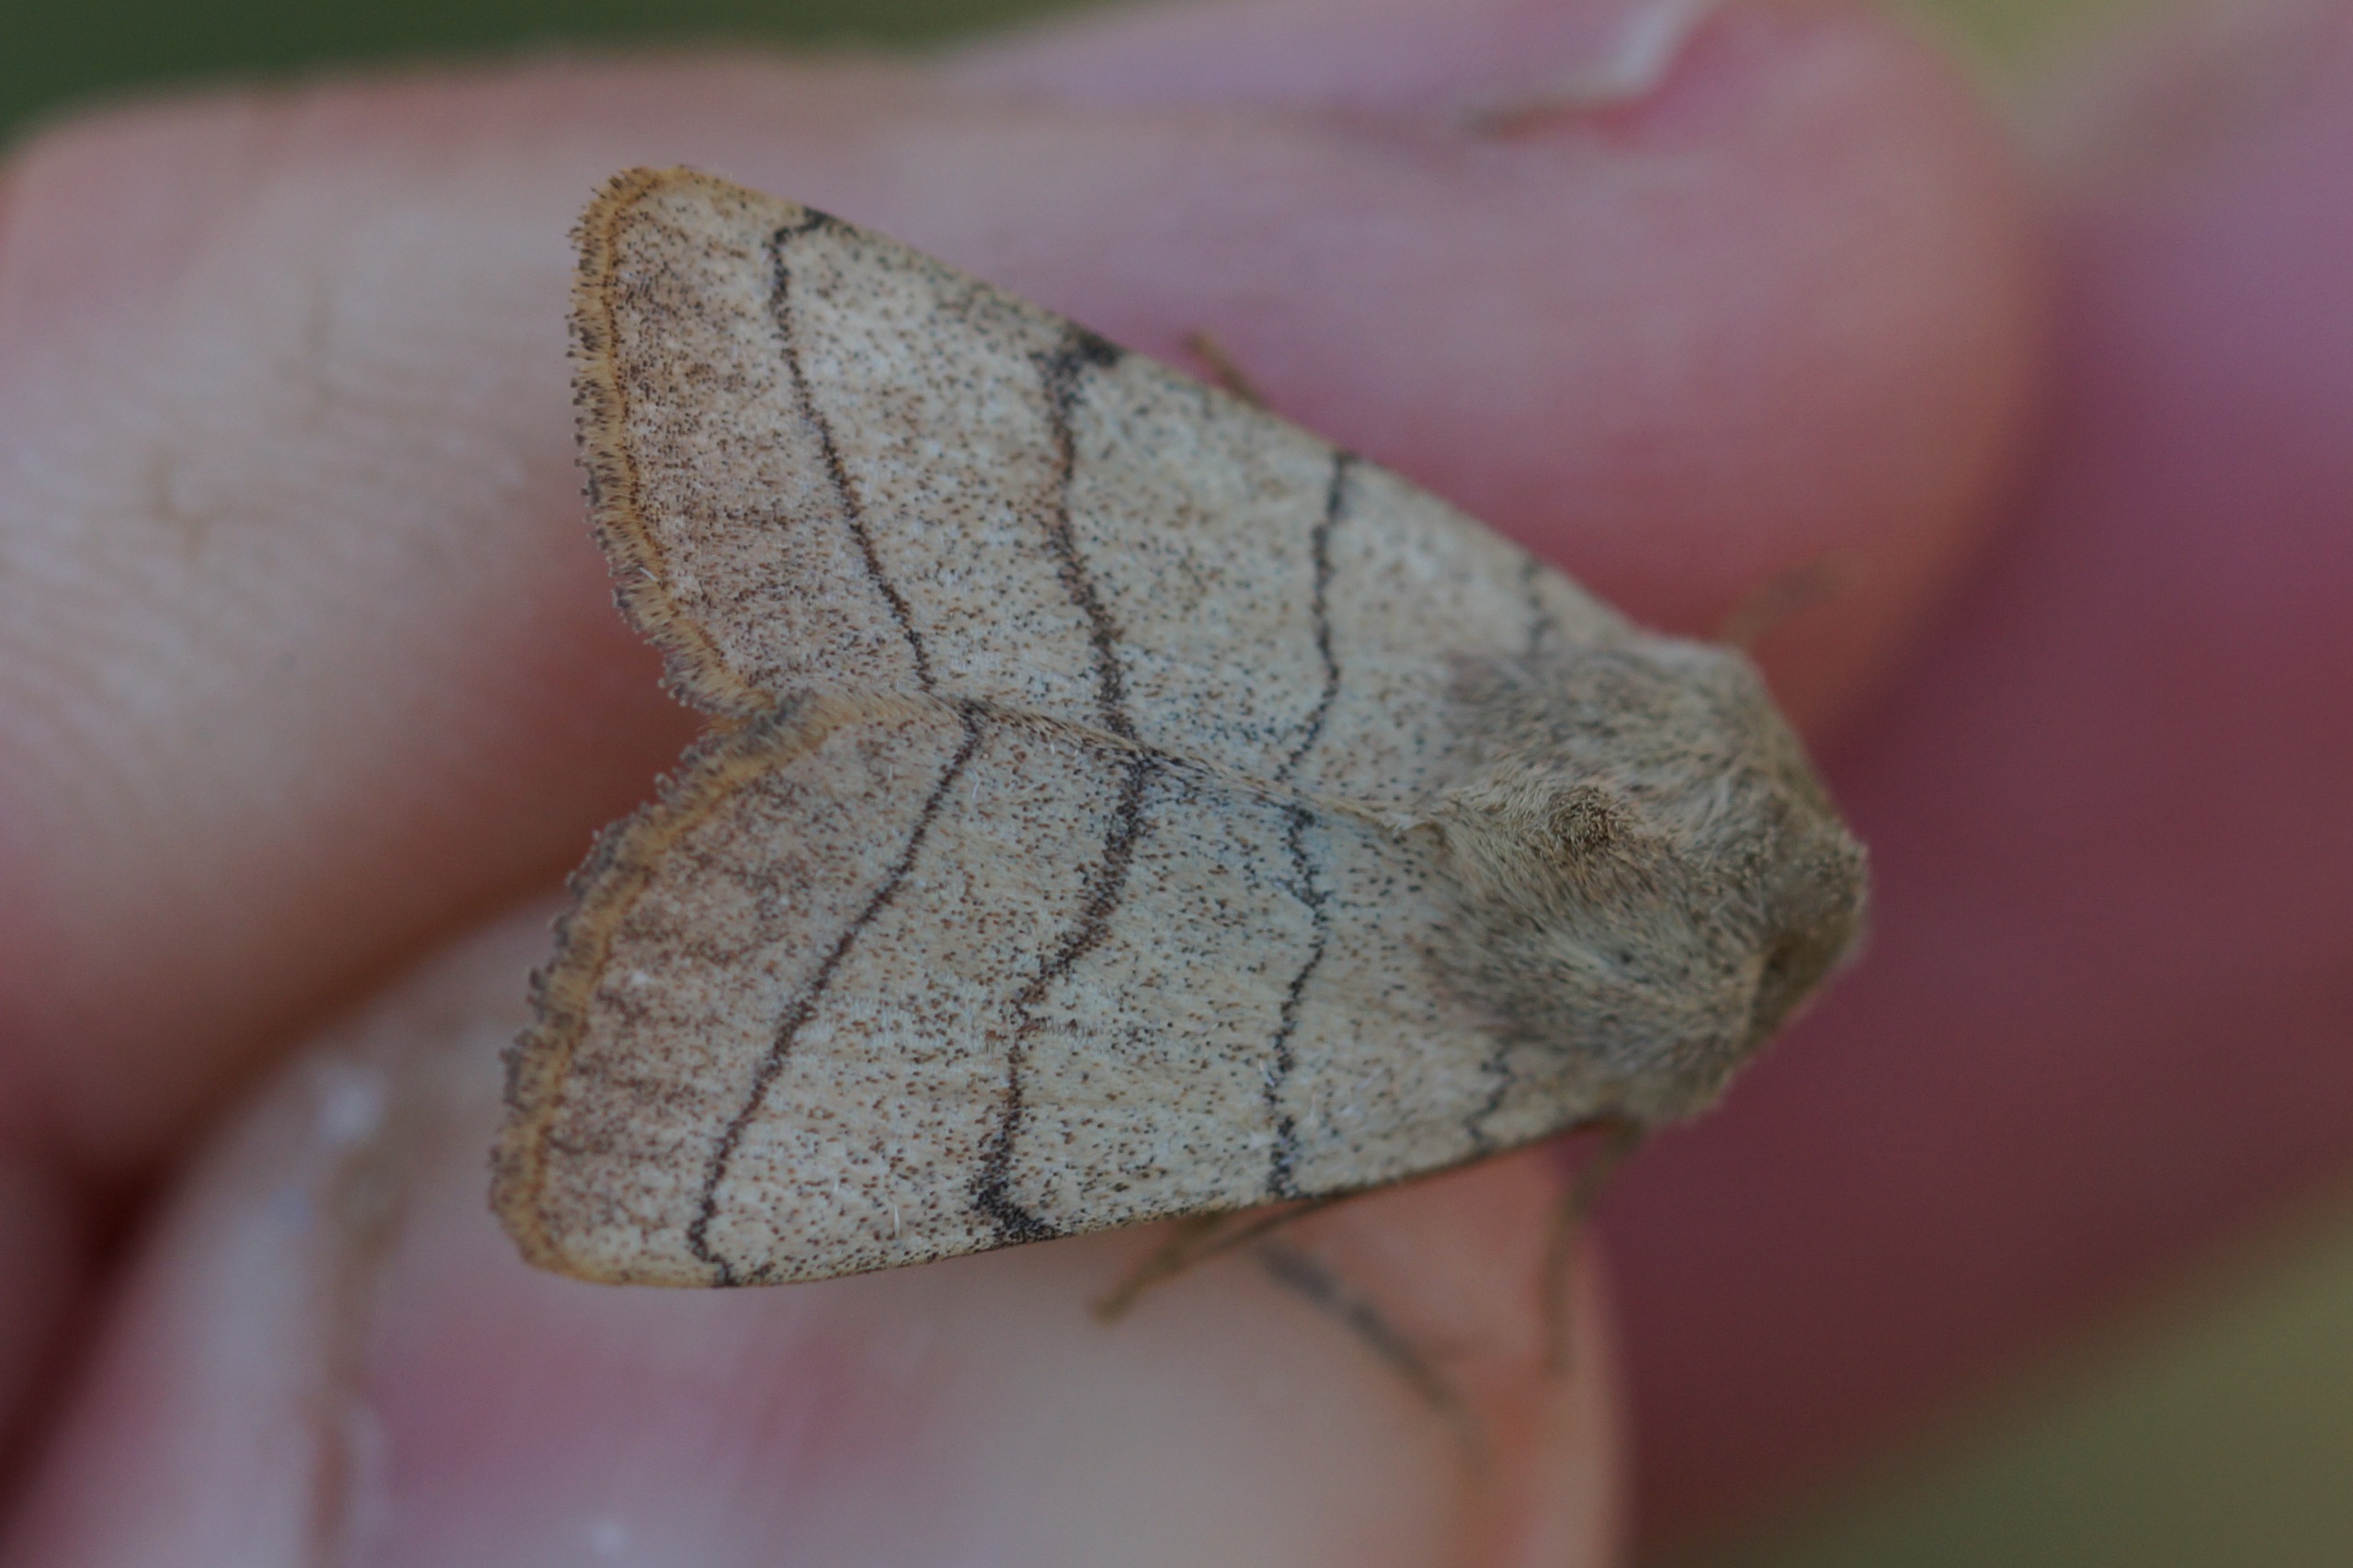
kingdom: Animalia
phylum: Arthropoda
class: Insecta
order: Lepidoptera
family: Noctuidae
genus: Charanyca
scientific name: Charanyca trigrammica
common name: Firestreget ugle
